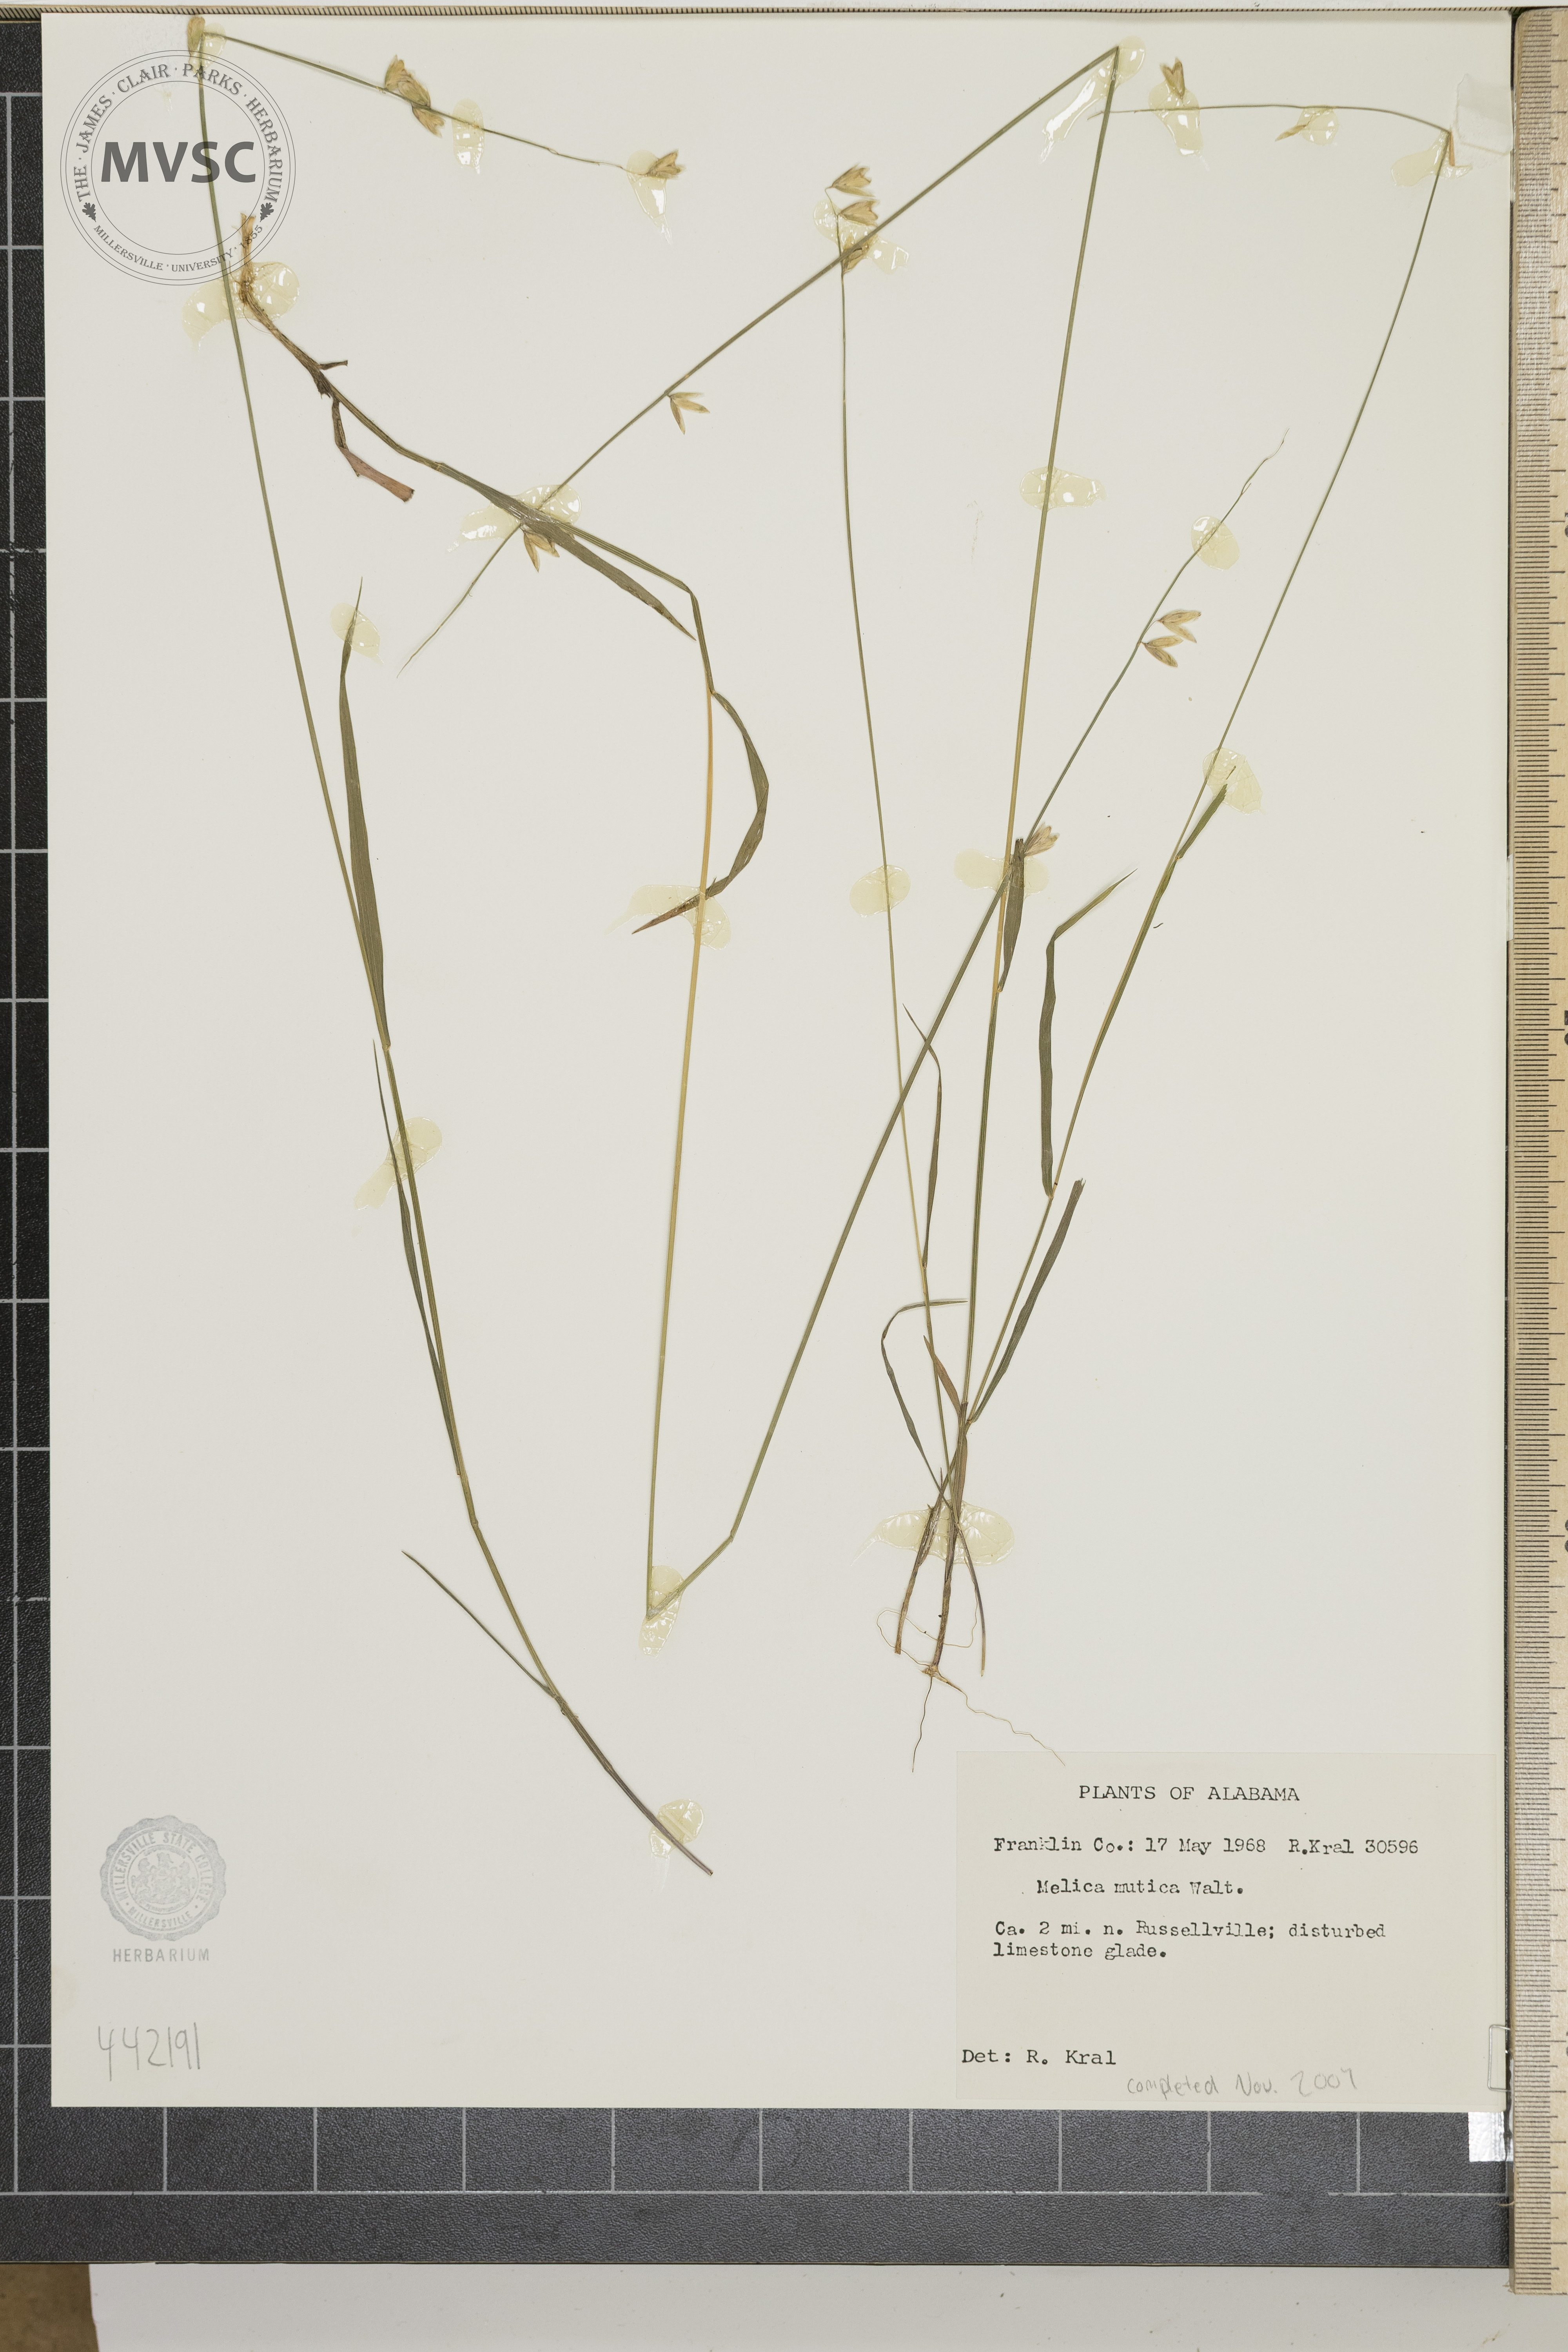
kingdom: Plantae
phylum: Tracheophyta
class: Liliopsida
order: Poales
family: Poaceae
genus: Melica
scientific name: Melica mutica
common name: Two-flower melic
